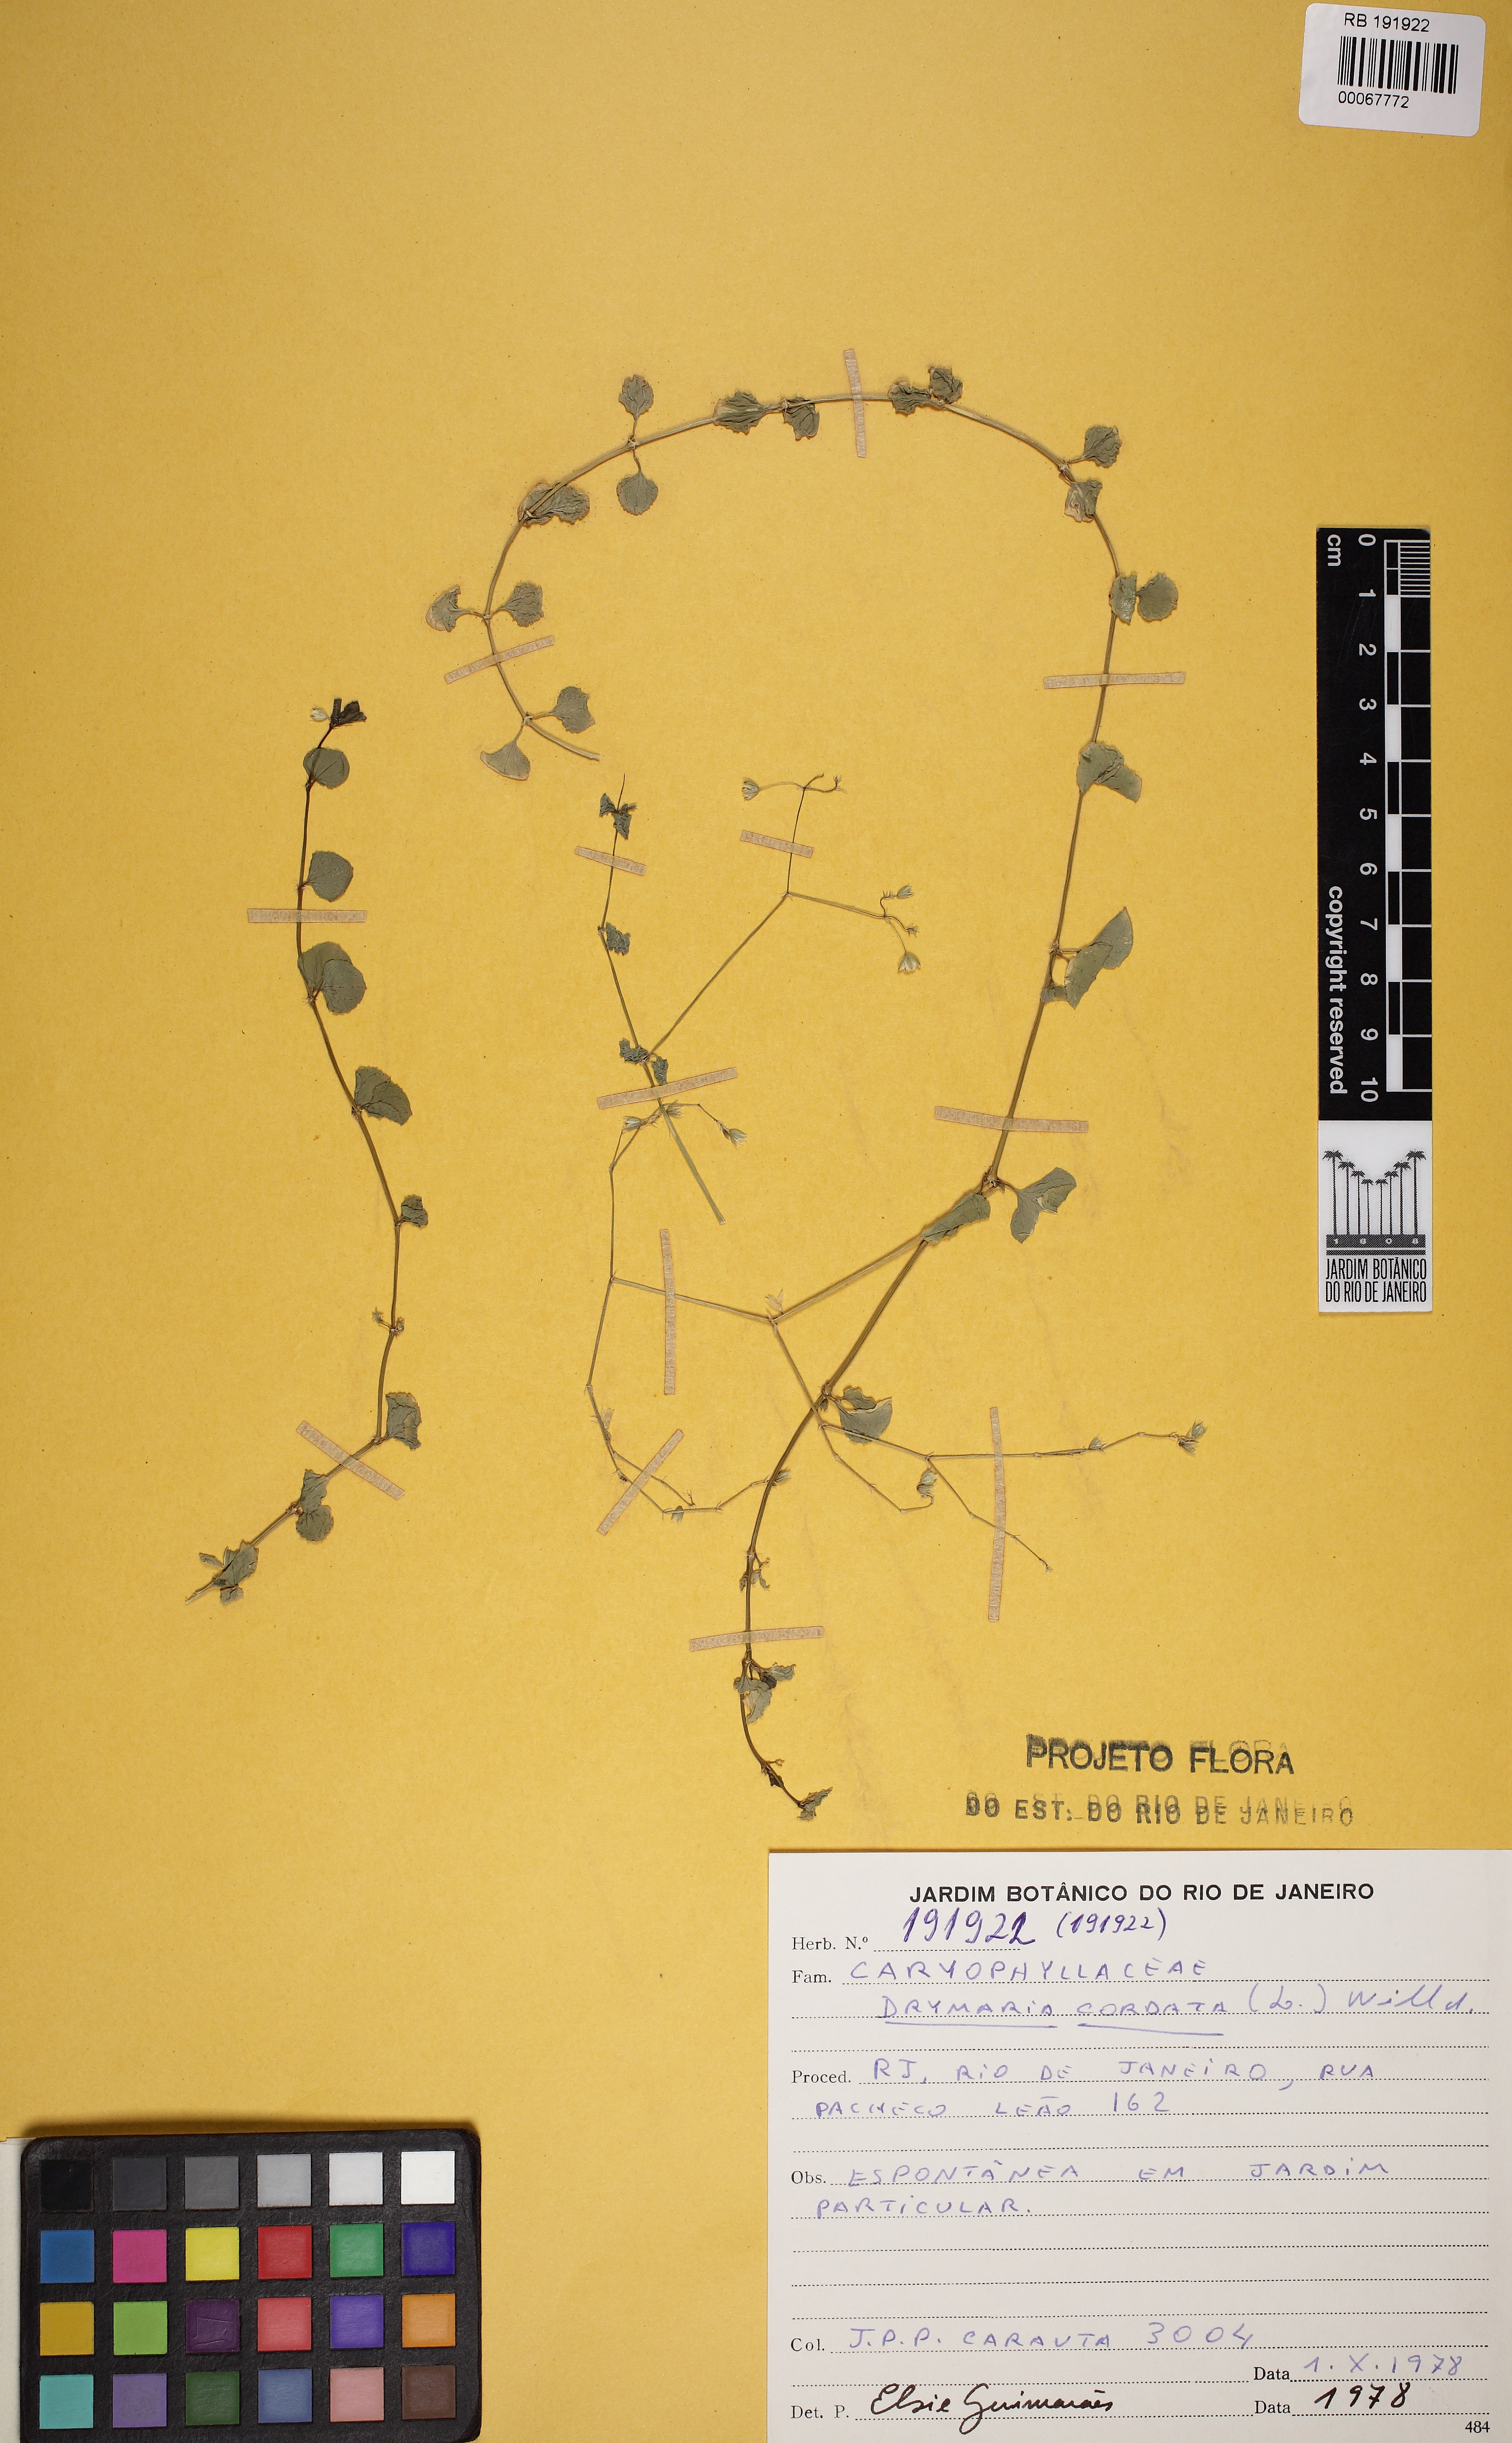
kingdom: Plantae
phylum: Tracheophyta
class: Magnoliopsida
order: Caryophyllales
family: Caryophyllaceae
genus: Drymaria
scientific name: Drymaria cordata
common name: Whitesnow
